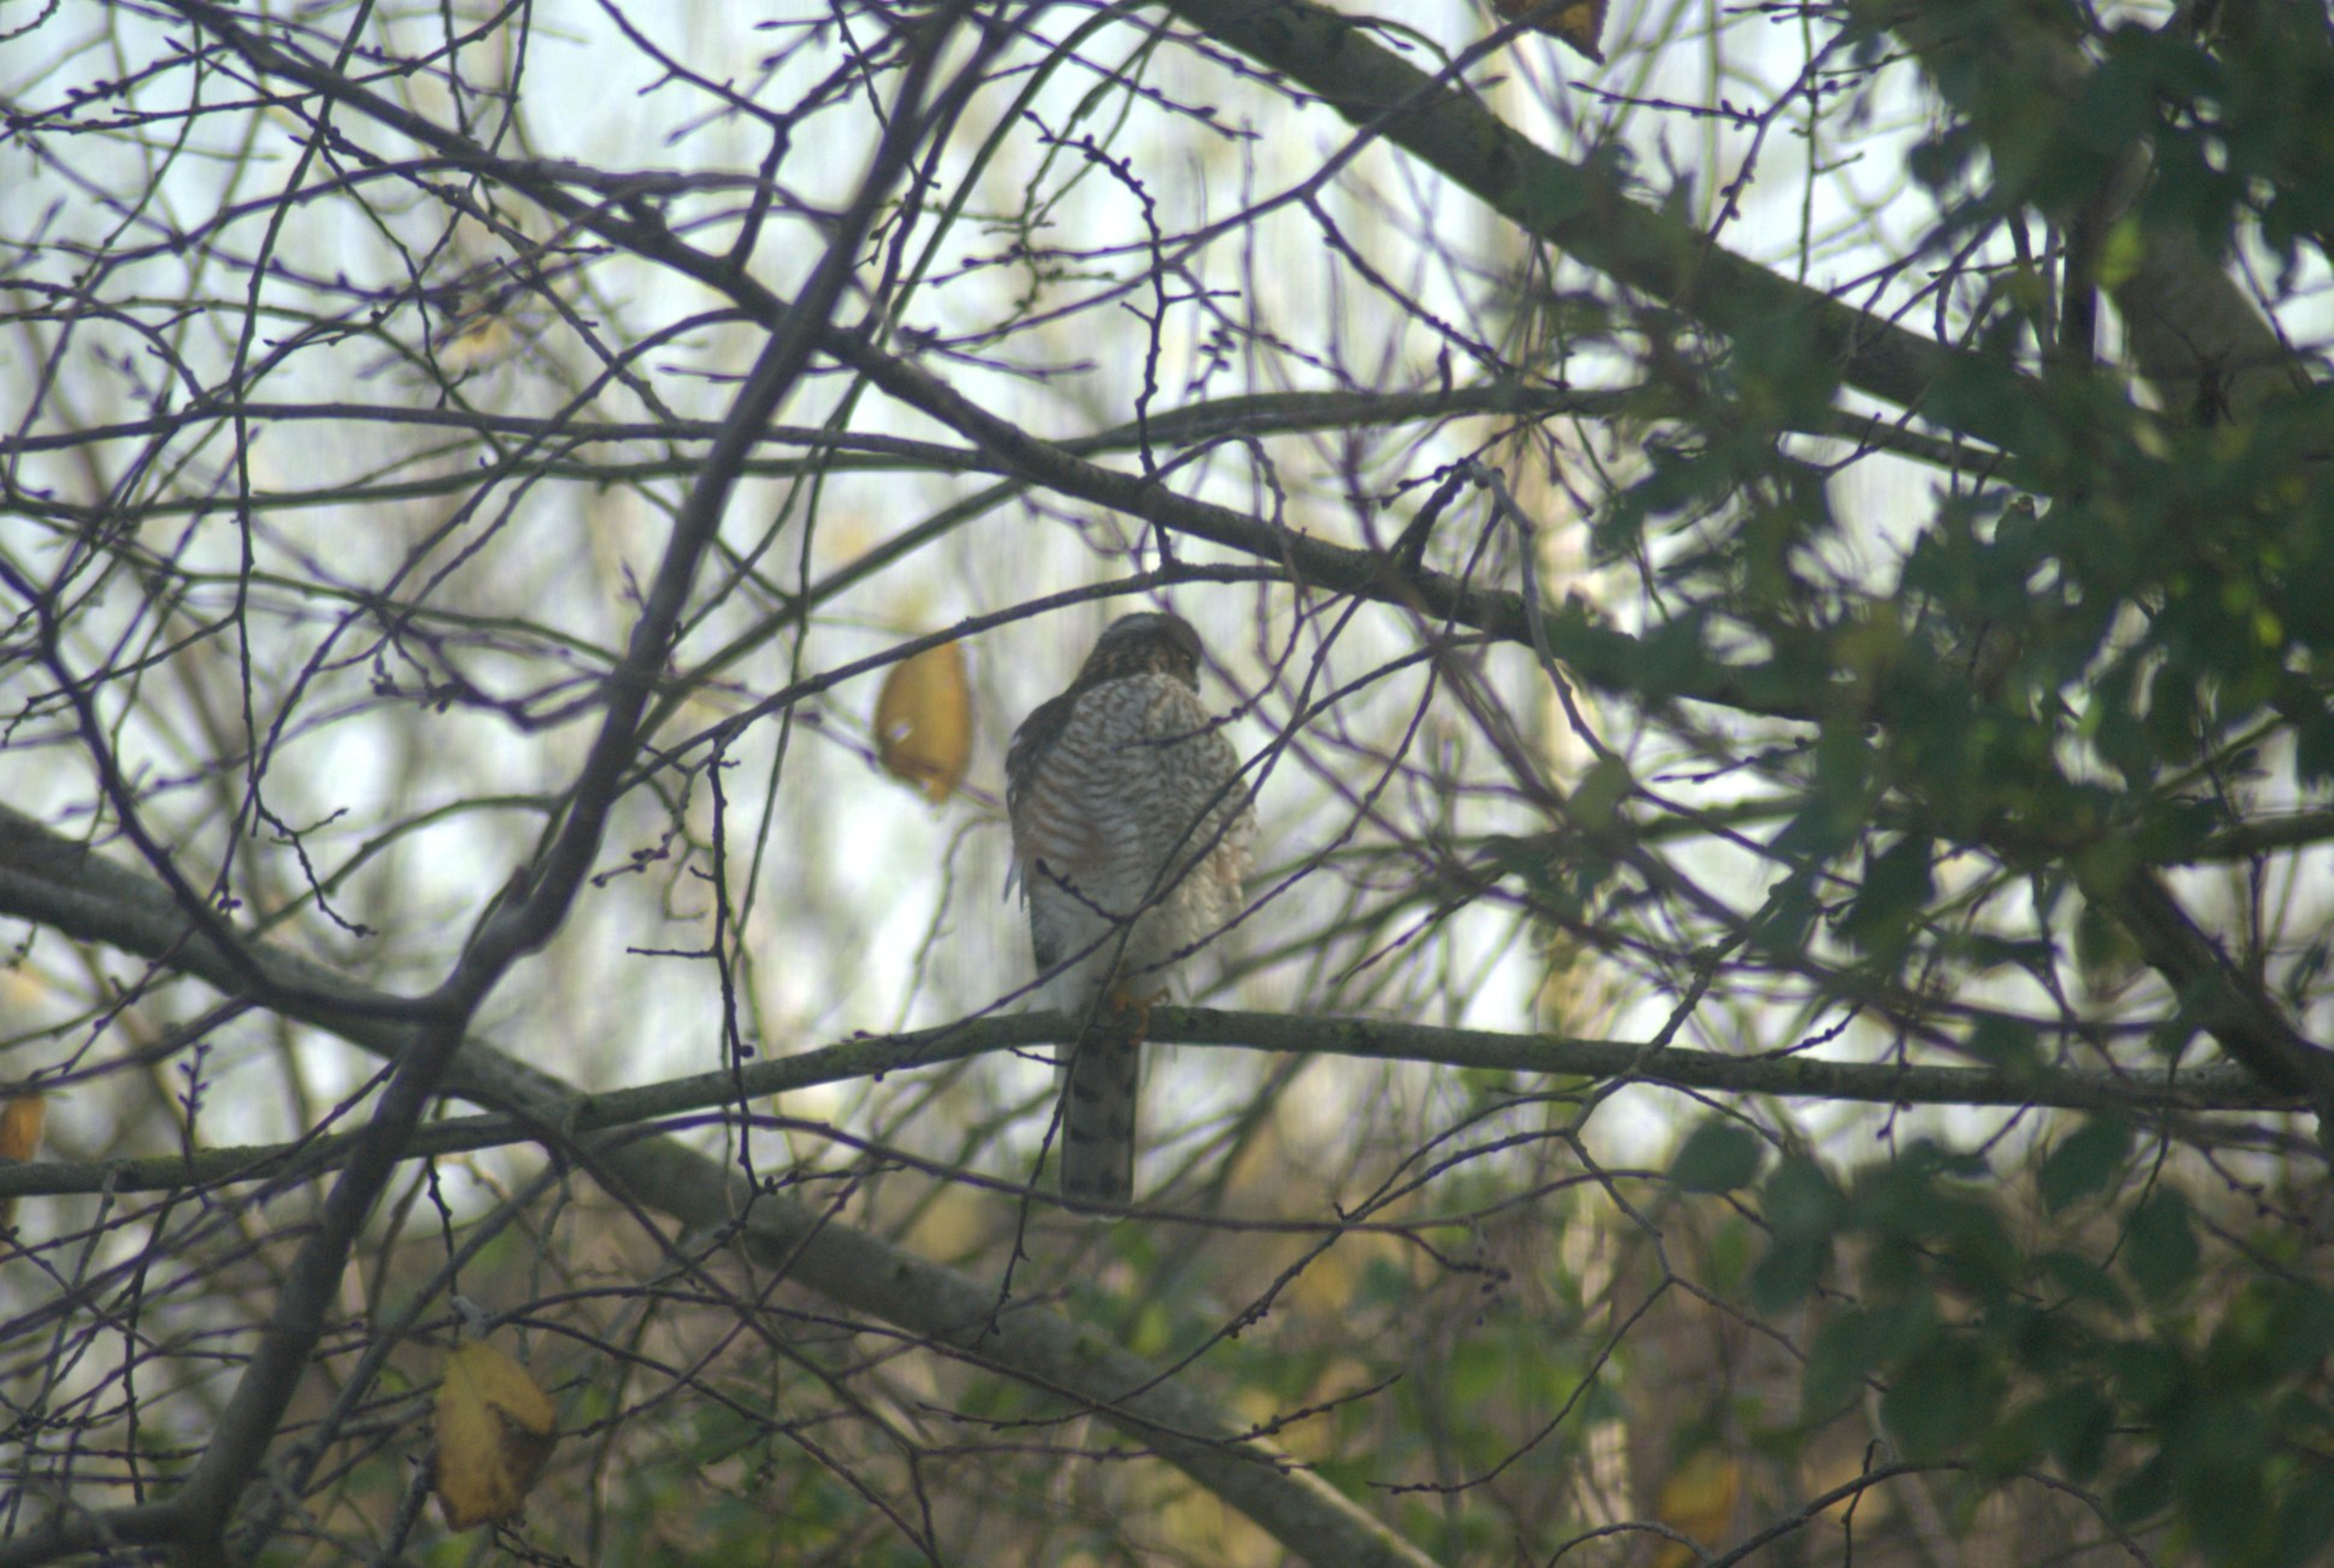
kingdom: Animalia
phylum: Chordata
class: Aves
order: Accipitriformes
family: Accipitridae
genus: Accipiter
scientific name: Accipiter nisus
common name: Spurvehøg
